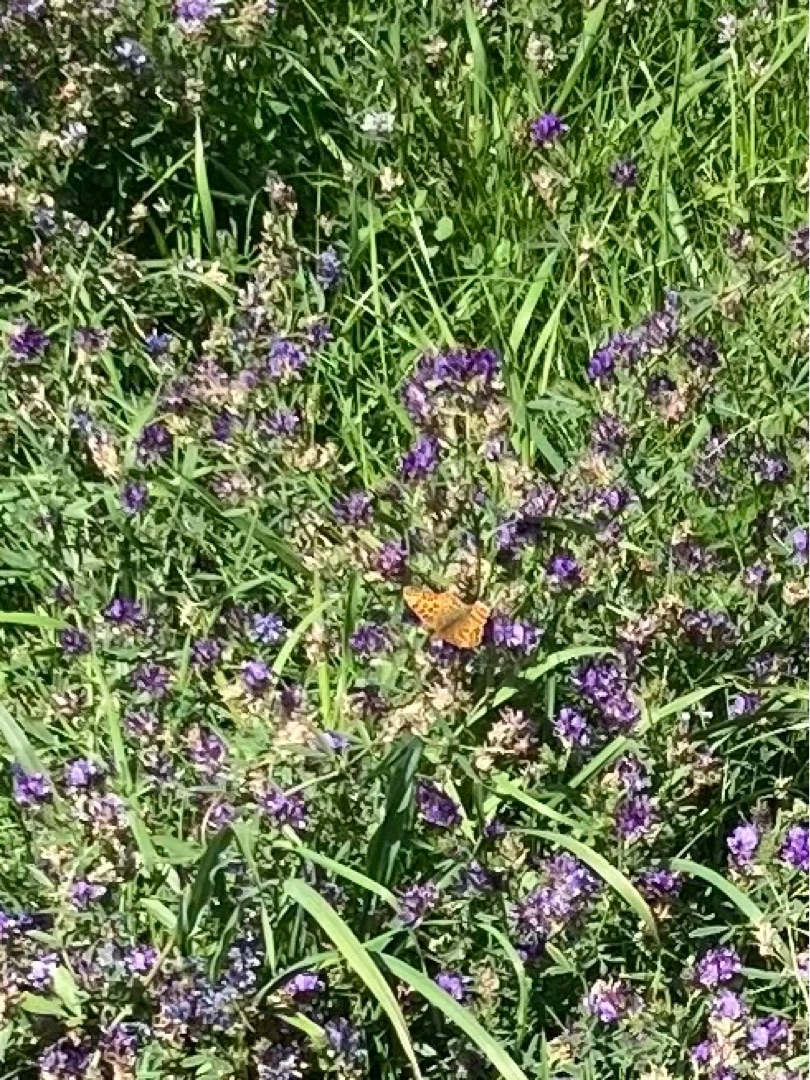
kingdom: Animalia
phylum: Arthropoda
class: Insecta
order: Lepidoptera
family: Nymphalidae
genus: Issoria
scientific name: Issoria lathonia
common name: Storplettet perlemorsommerfugl
